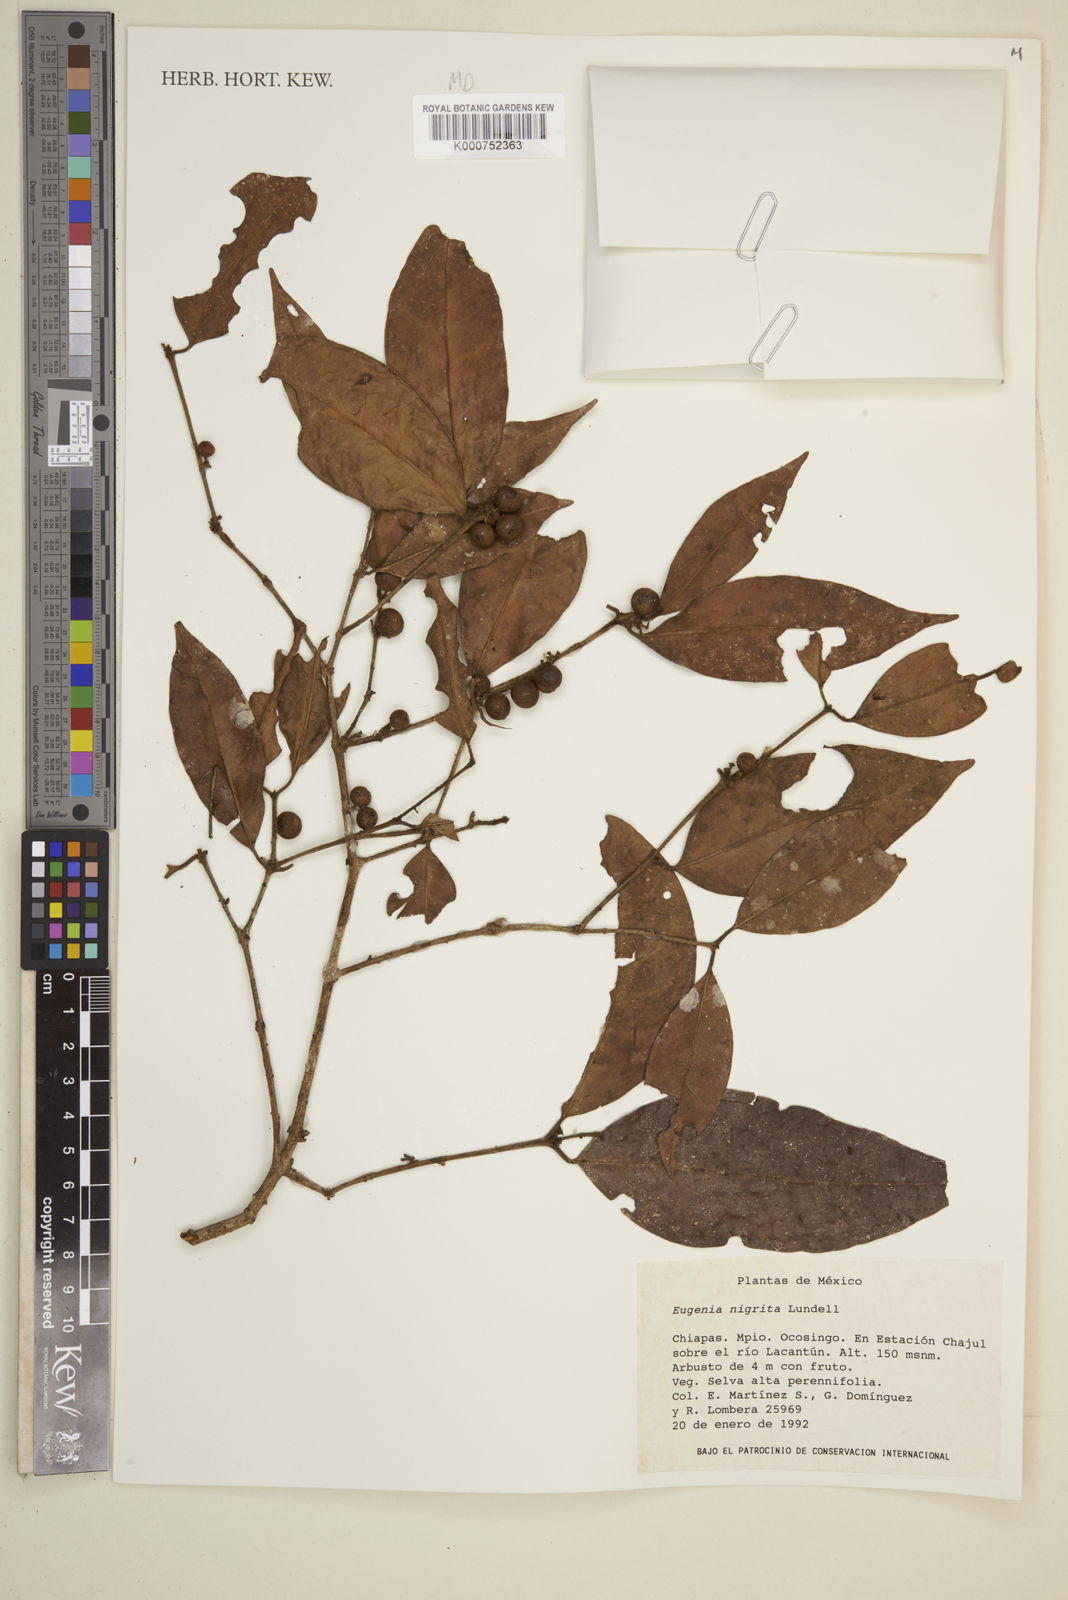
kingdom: Plantae
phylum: Tracheophyta
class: Magnoliopsida
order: Myrtales
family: Myrtaceae
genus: Eugenia
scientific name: Eugenia nigrita
